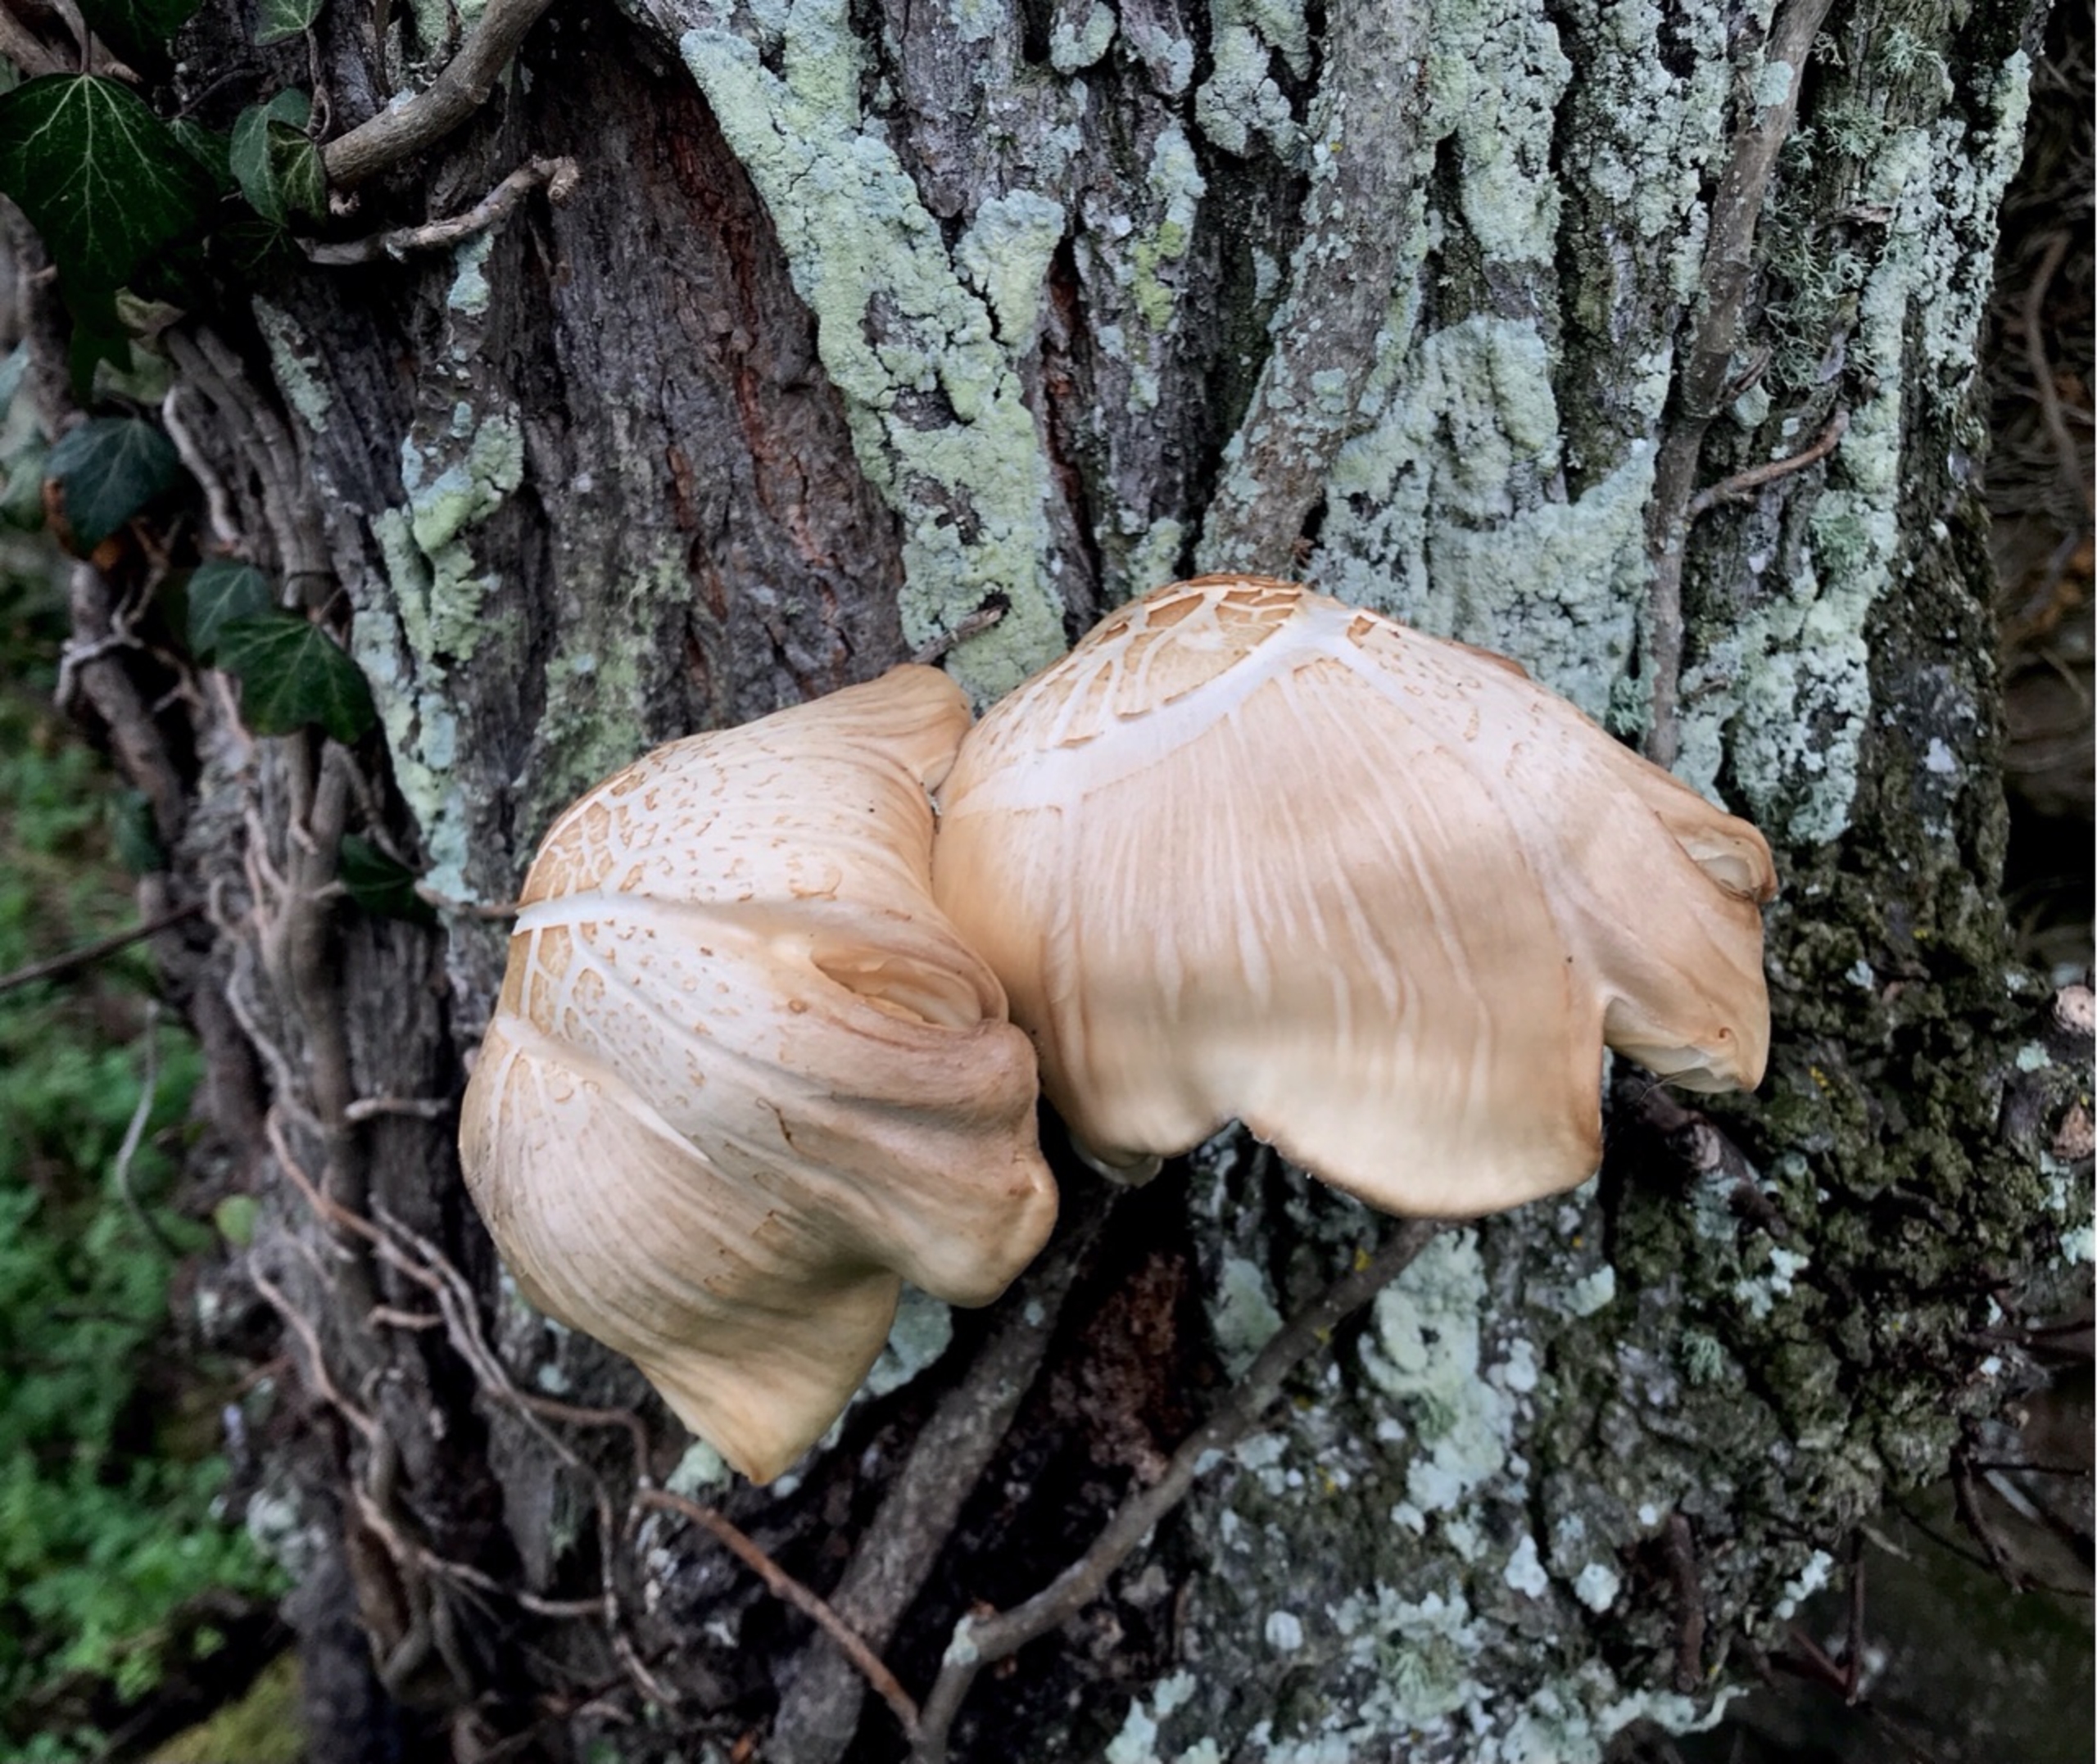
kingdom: Fungi
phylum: Basidiomycota
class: Agaricomycetes
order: Agaricales
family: Strophariaceae
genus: Hemipholiota
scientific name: Hemipholiota
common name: Kæmpeskælhat
